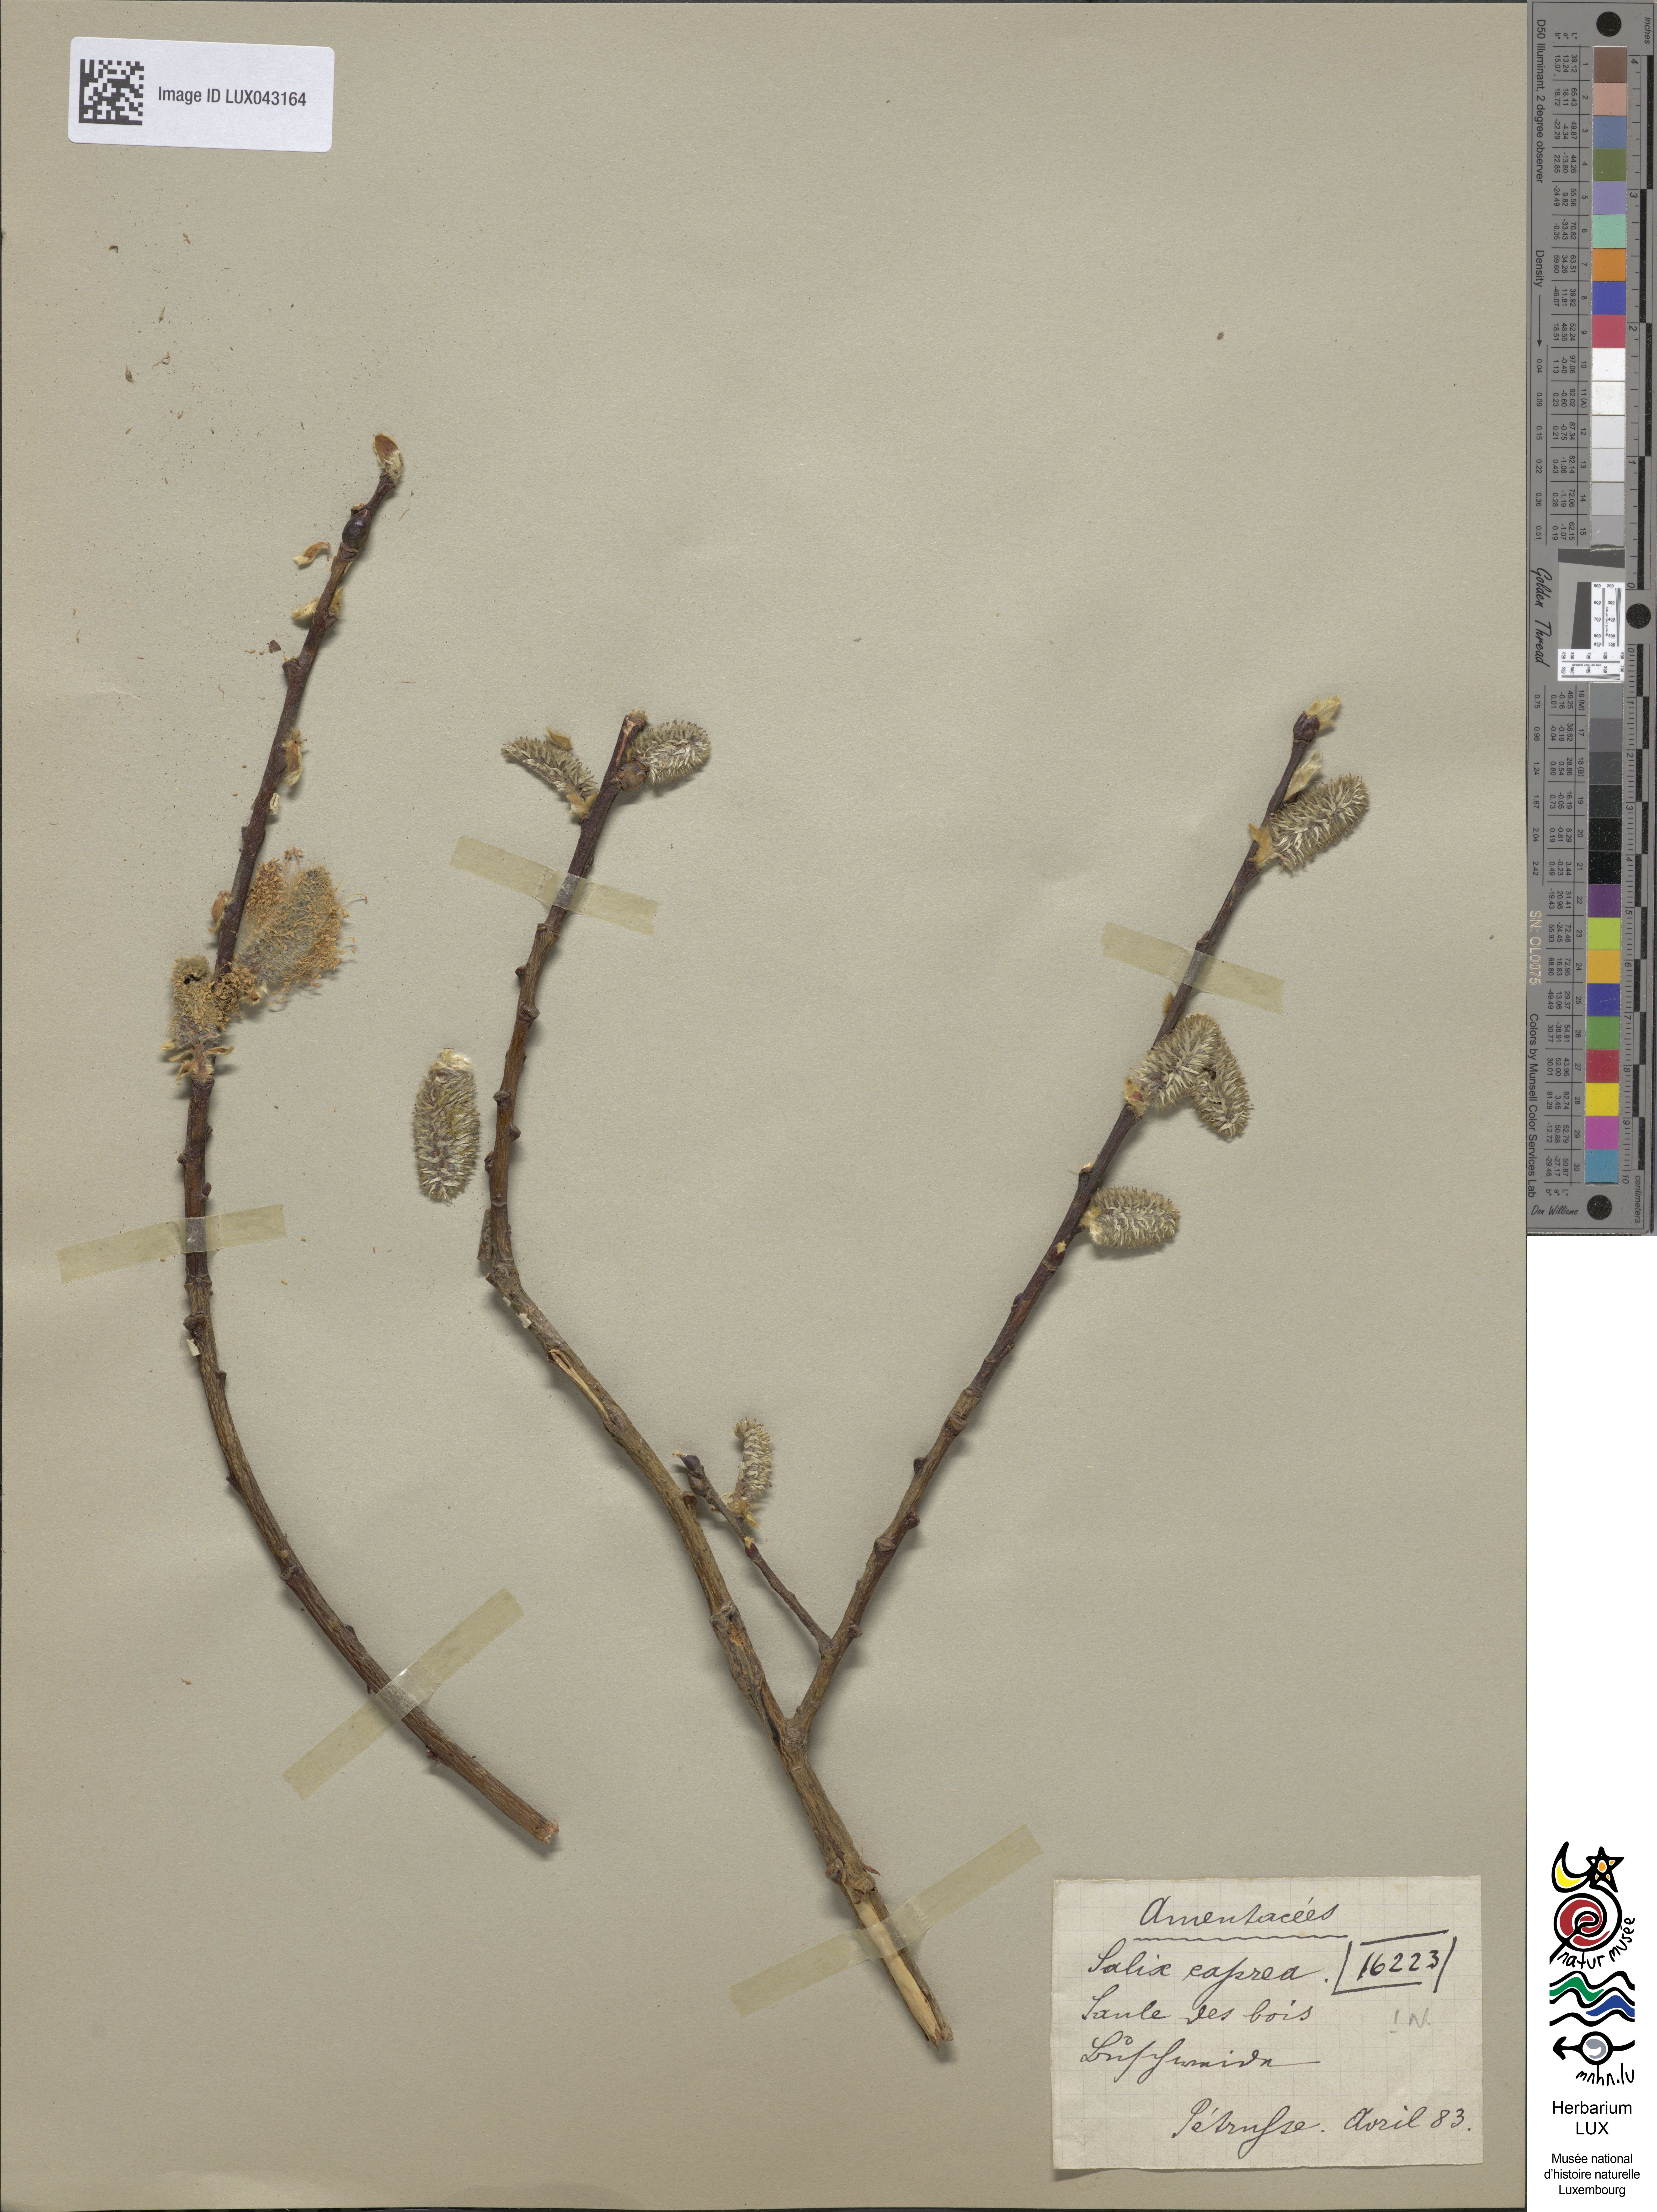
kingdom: Plantae
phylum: Tracheophyta
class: Magnoliopsida
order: Malpighiales
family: Salicaceae
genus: Salix
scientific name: Salix caprea
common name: Goat willow
